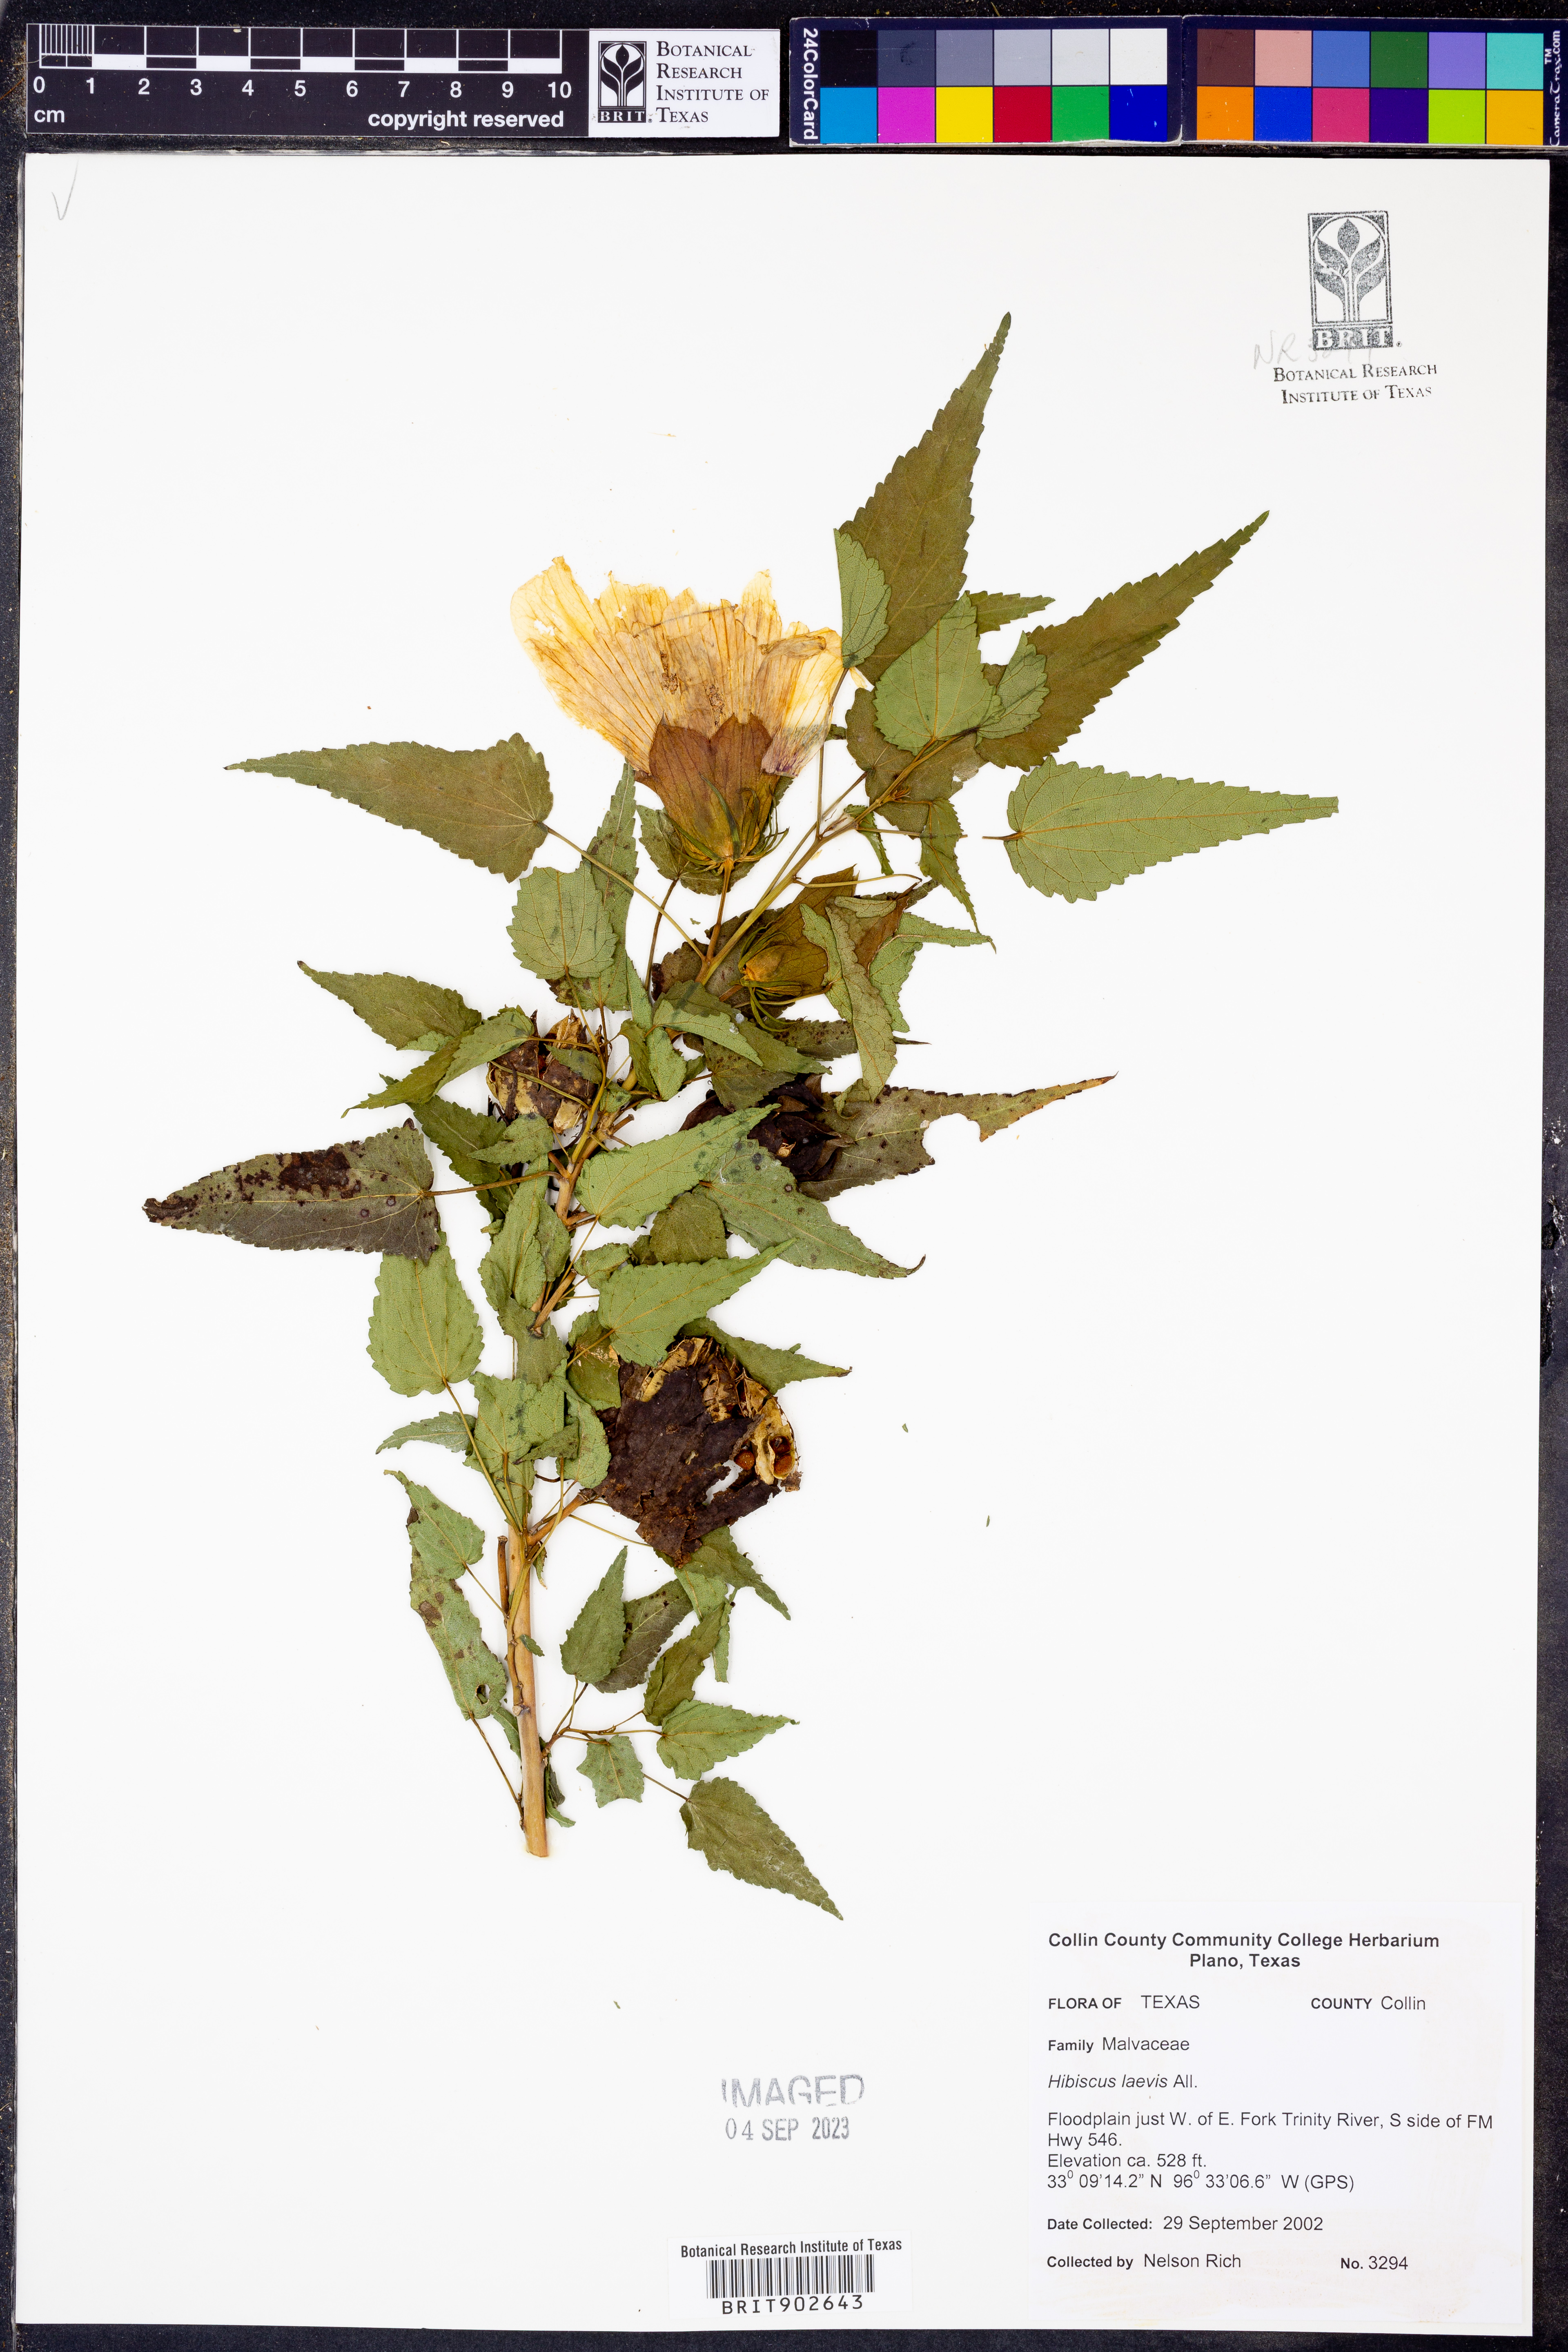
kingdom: Plantae
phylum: Tracheophyta
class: Magnoliopsida
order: Malvales
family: Malvaceae
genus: Hibiscus
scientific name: Hibiscus laevis
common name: Scarlet rose-mallow
